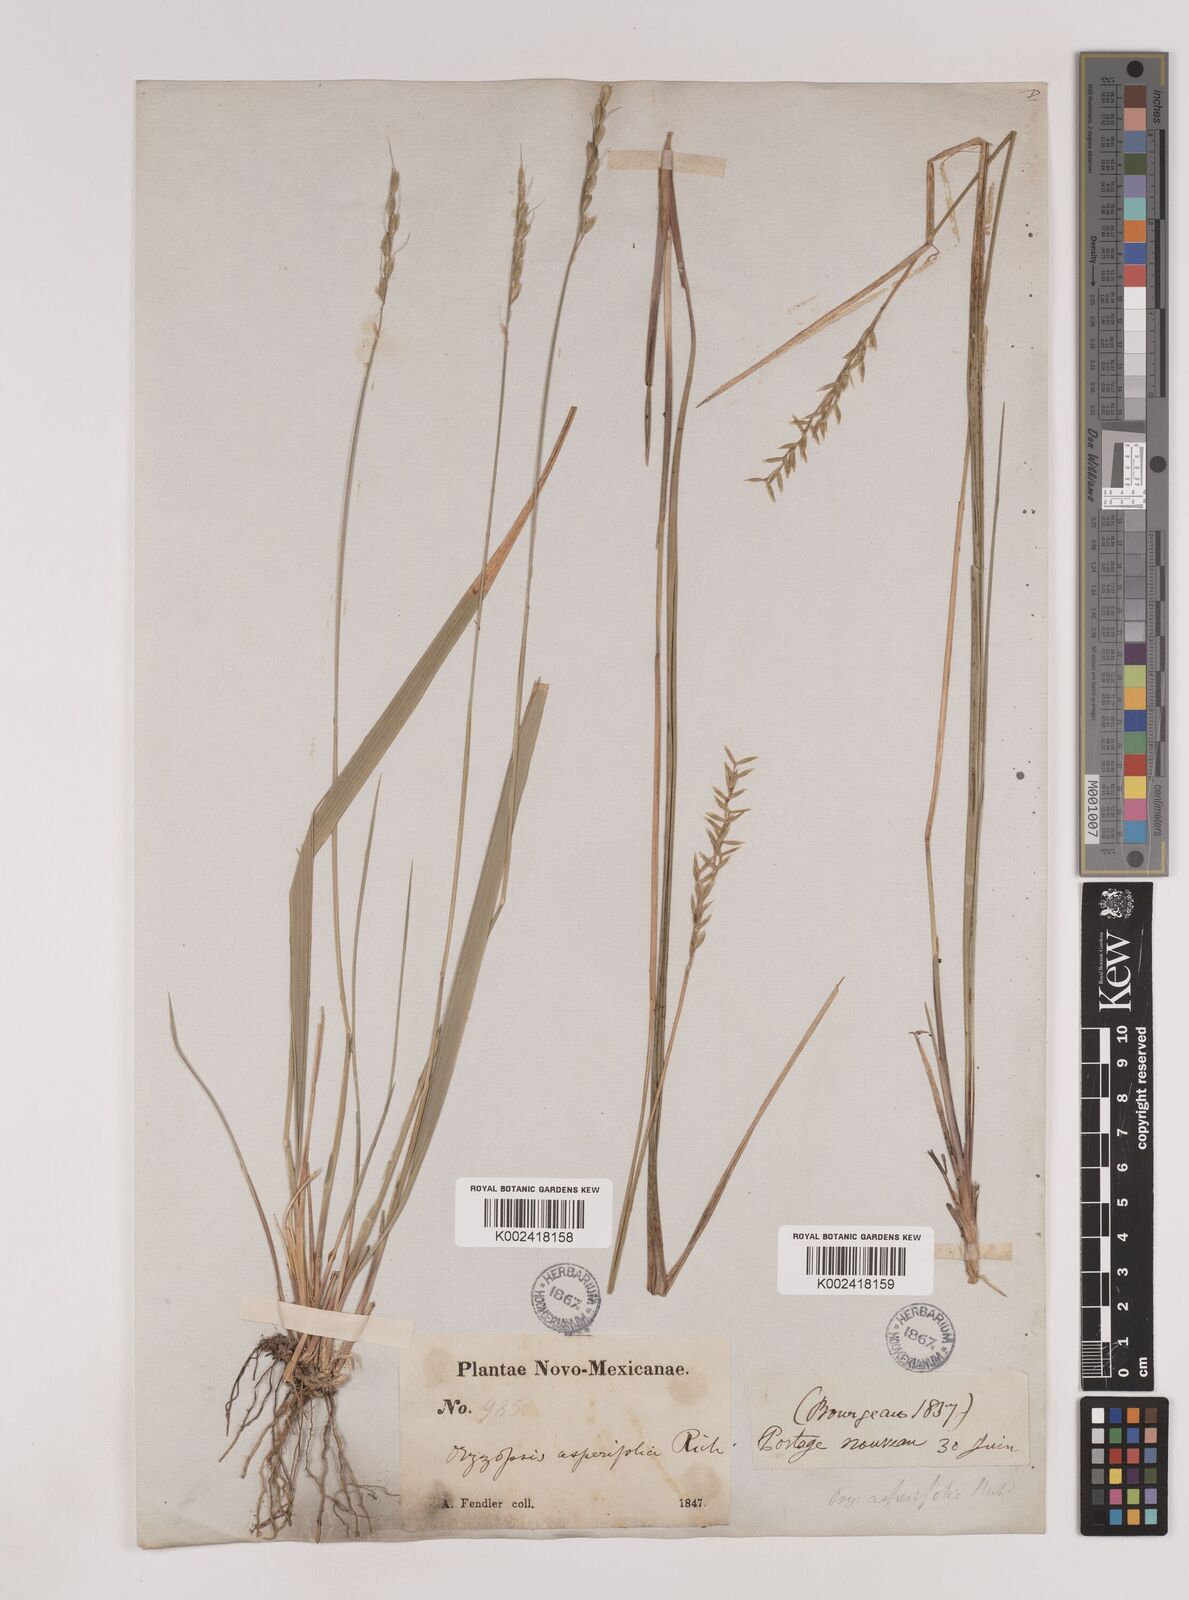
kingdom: Plantae
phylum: Tracheophyta
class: Liliopsida
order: Poales
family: Poaceae
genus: Oryzopsis
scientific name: Oryzopsis asperifolia
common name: Rough-leaved mountain rice
